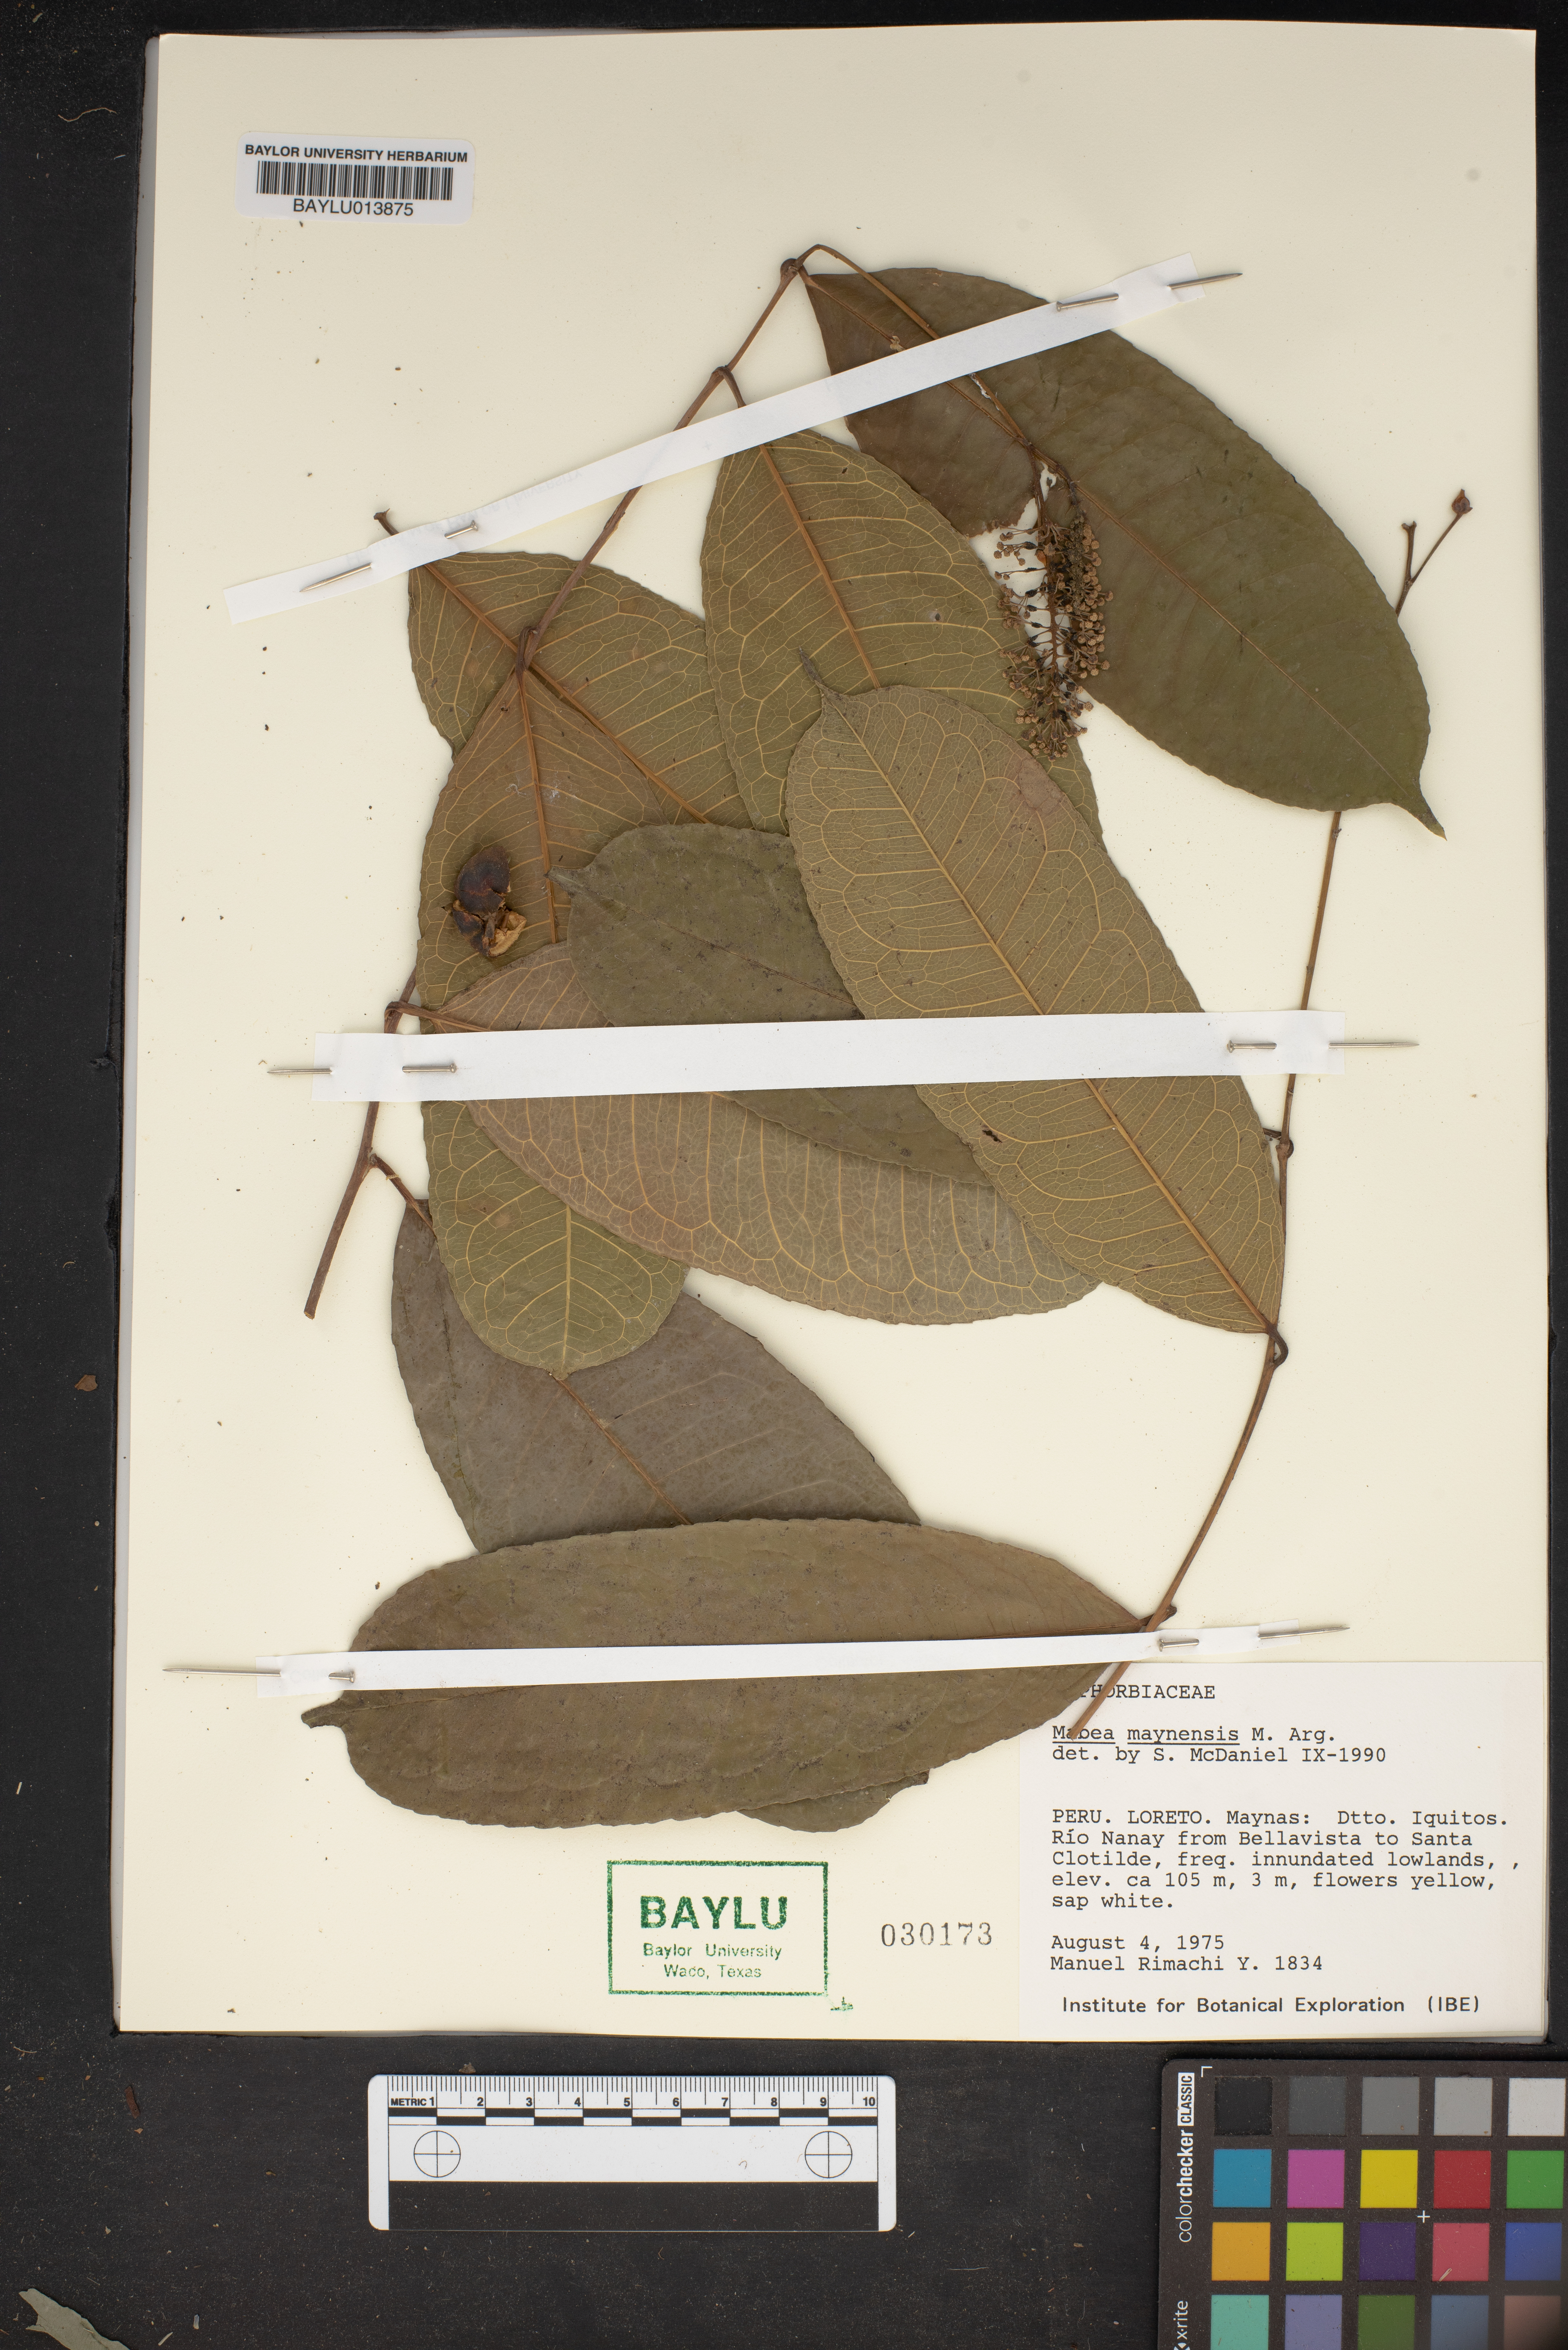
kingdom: Plantae
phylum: Tracheophyta
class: Magnoliopsida
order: Malpighiales
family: Euphorbiaceae
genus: Mabea
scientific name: Mabea piriri
